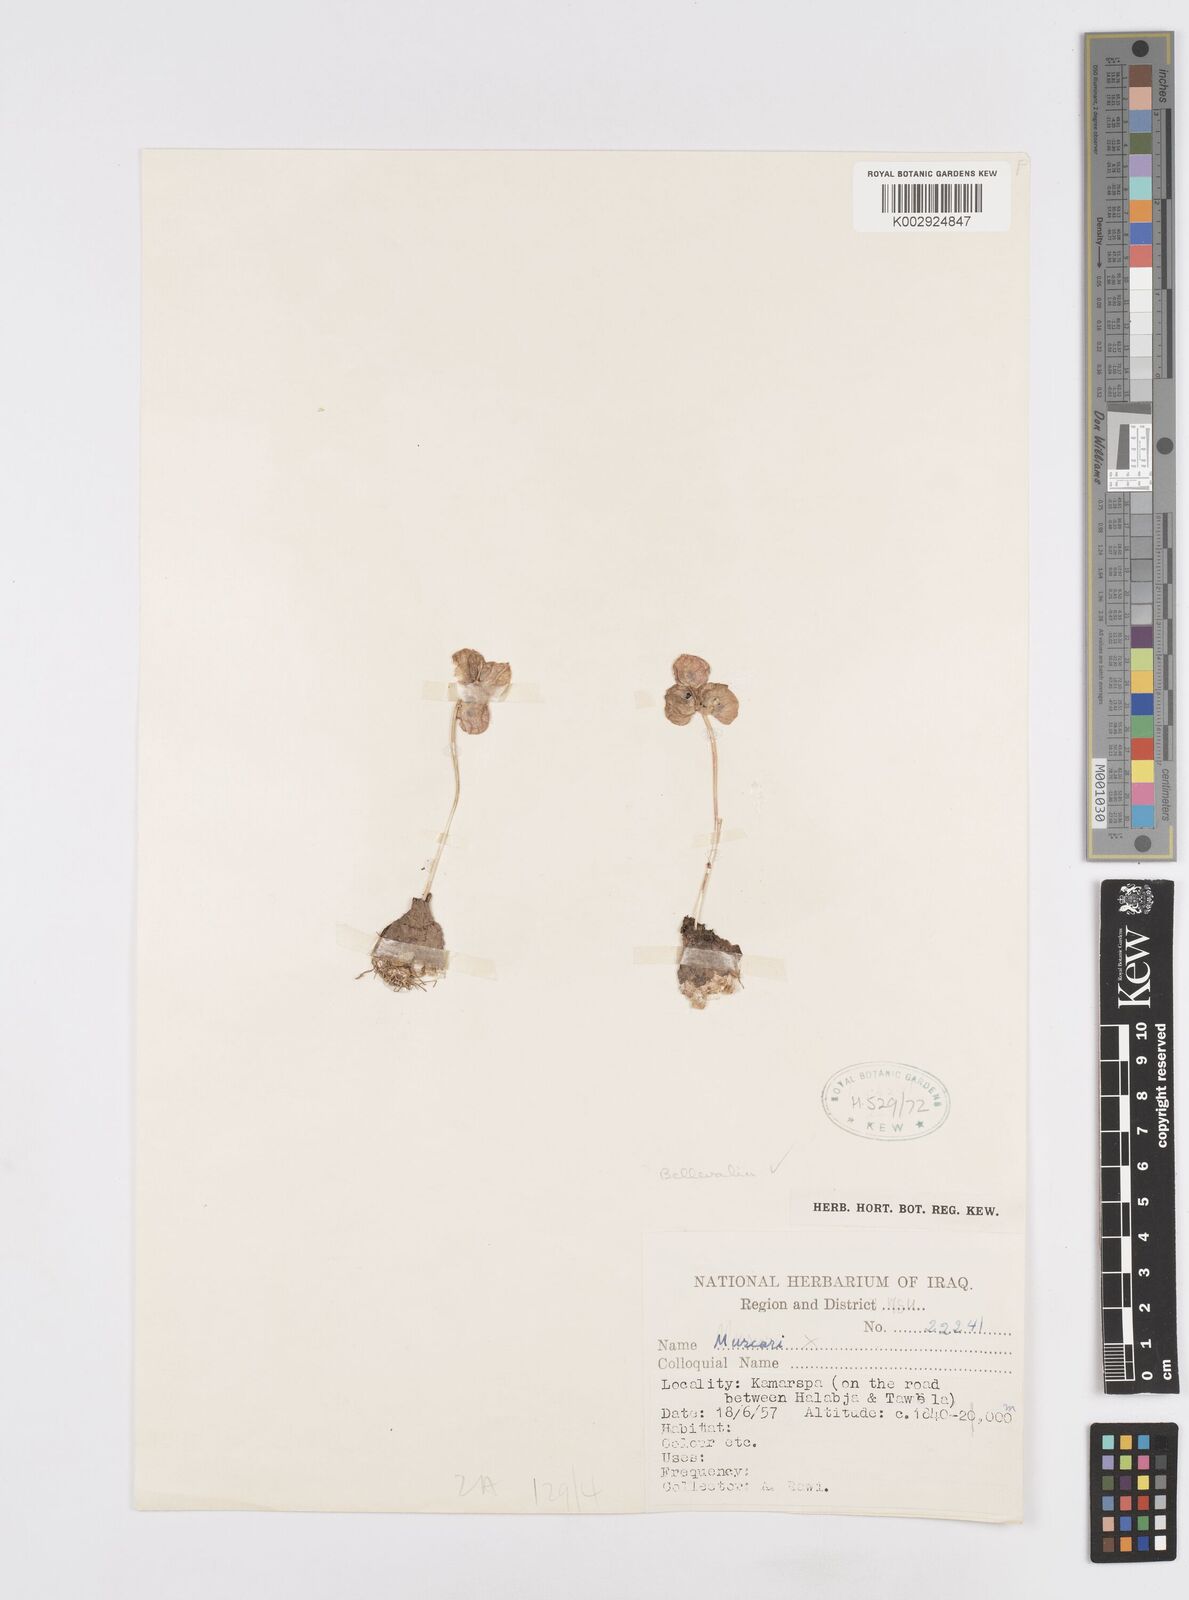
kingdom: Plantae
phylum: Tracheophyta
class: Liliopsida
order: Asparagales
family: Asparagaceae
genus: Bellevalia
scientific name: Bellevalia
